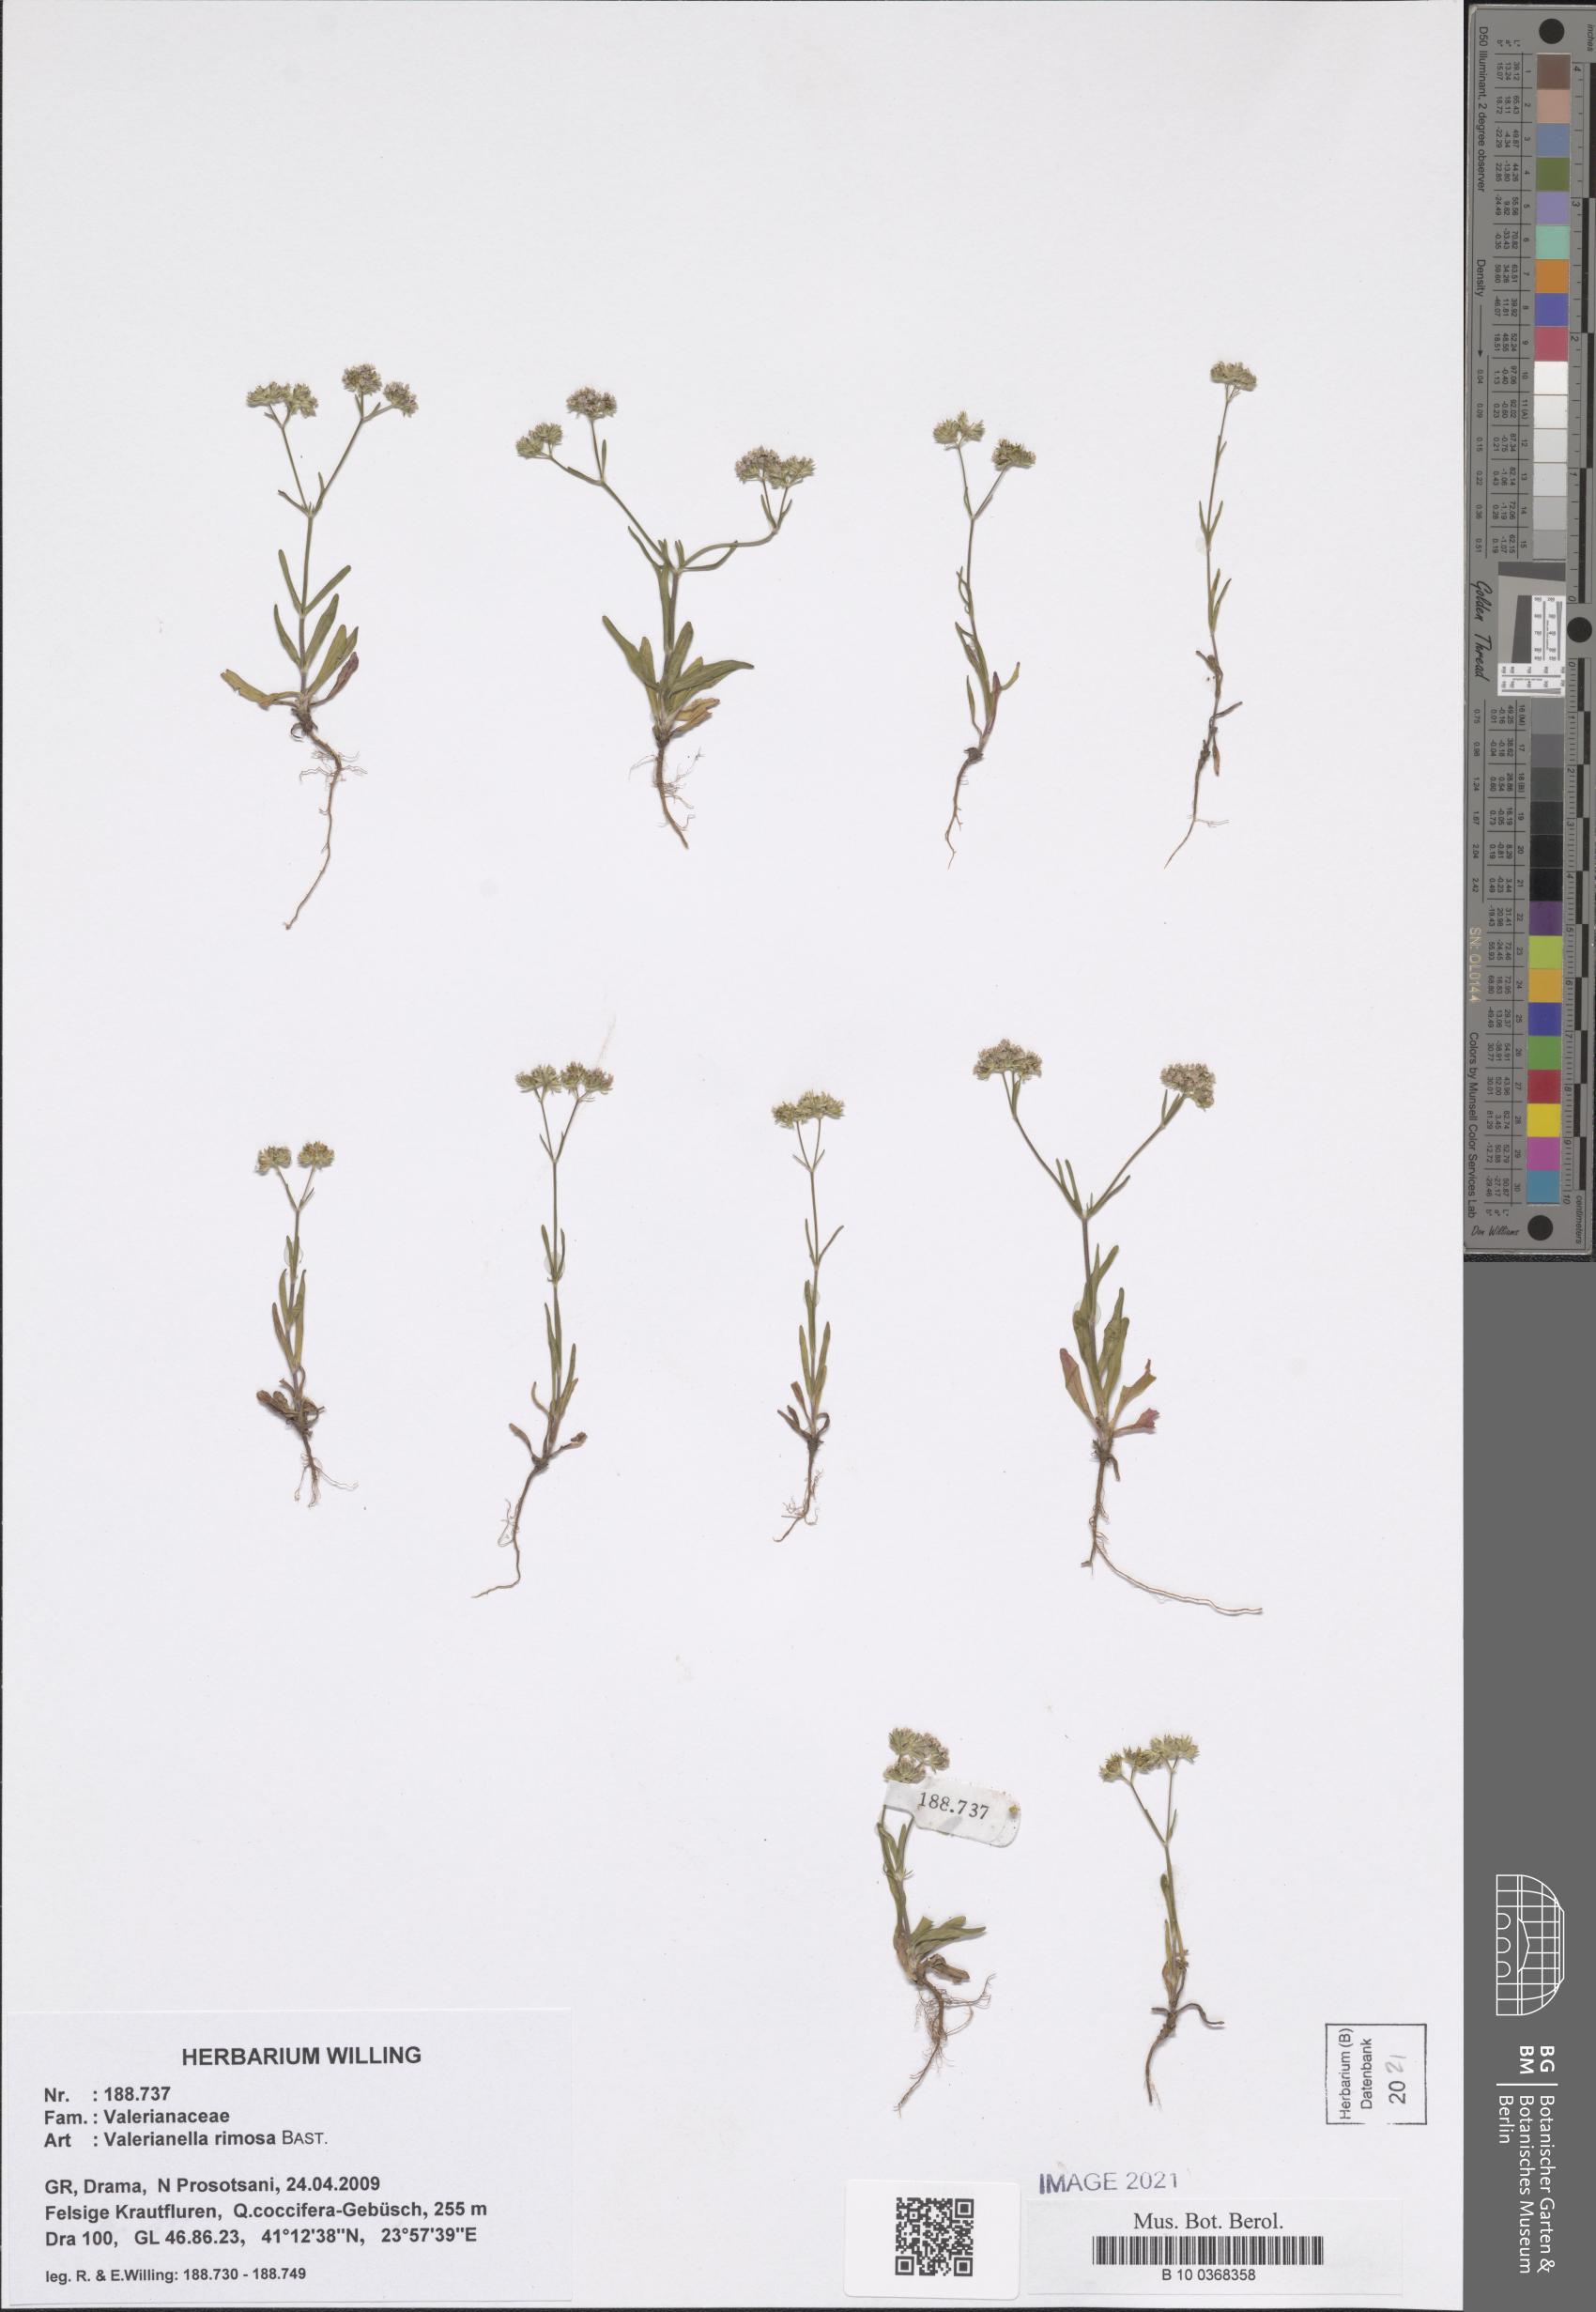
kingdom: Plantae
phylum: Tracheophyta
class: Magnoliopsida
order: Dipsacales
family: Caprifoliaceae
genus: Valerianella
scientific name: Valerianella rimosa
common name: Broad-fruited cornsalad
